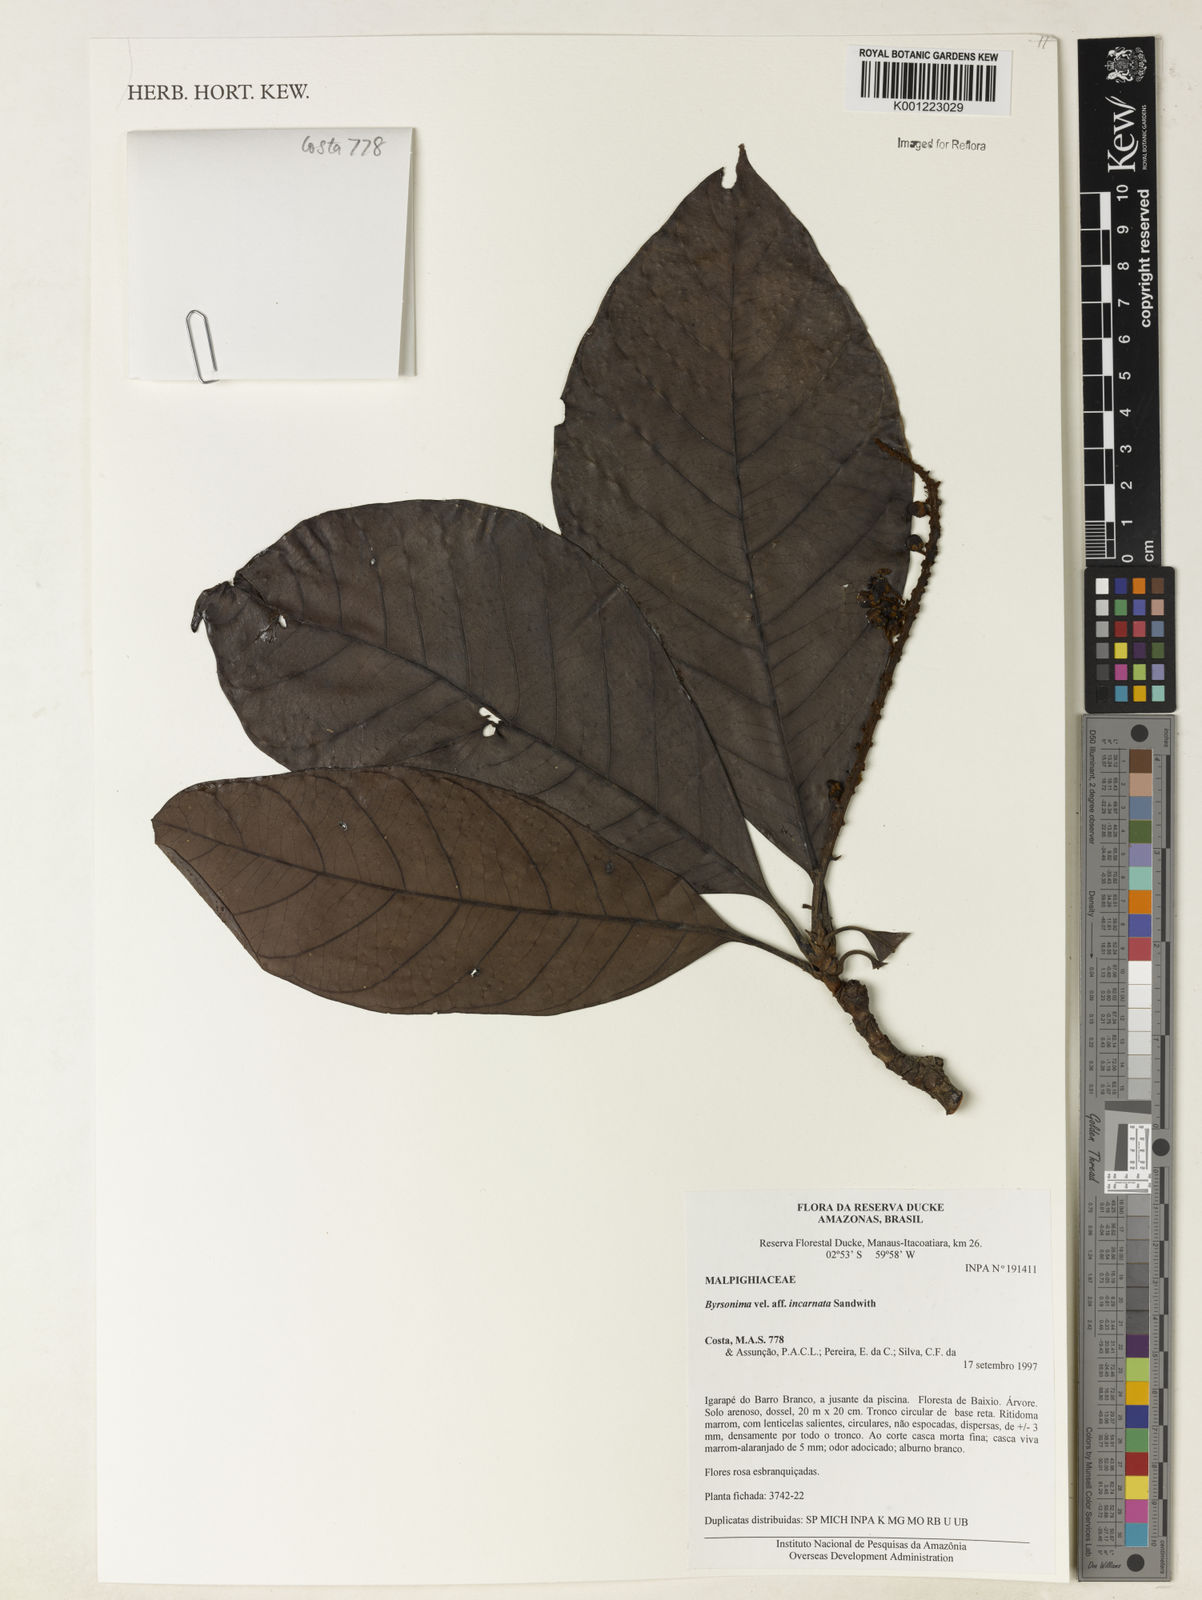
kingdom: Plantae
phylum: Tracheophyta
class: Magnoliopsida
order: Malpighiales
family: Malpighiaceae
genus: Byrsonima
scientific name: Byrsonima incarnata
